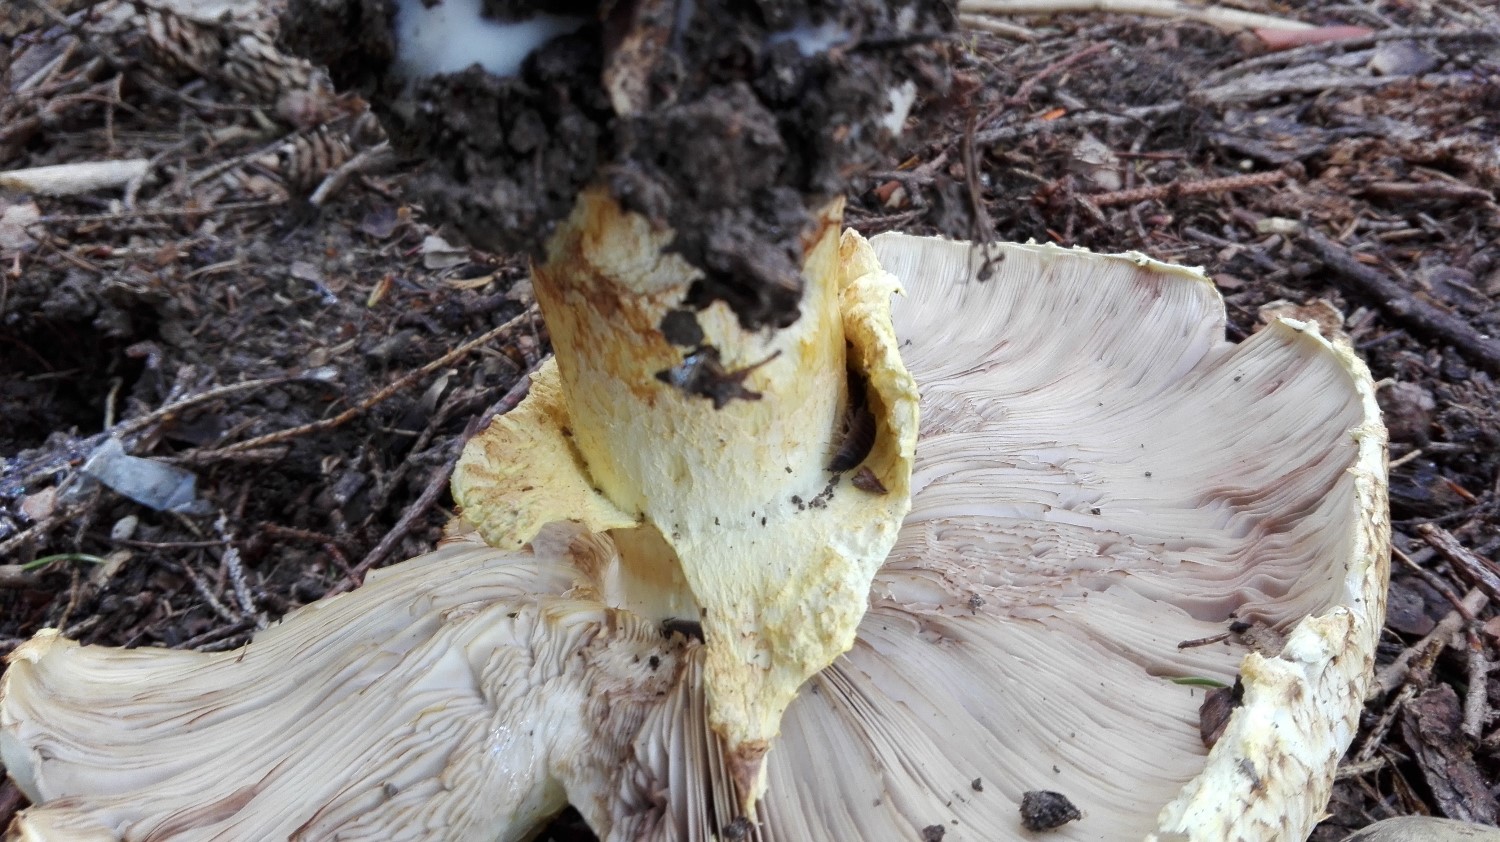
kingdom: Fungi
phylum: Basidiomycota
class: Agaricomycetes
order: Agaricales
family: Agaricaceae
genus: Agaricus
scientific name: Agaricus augustus
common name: prægtig champignon
